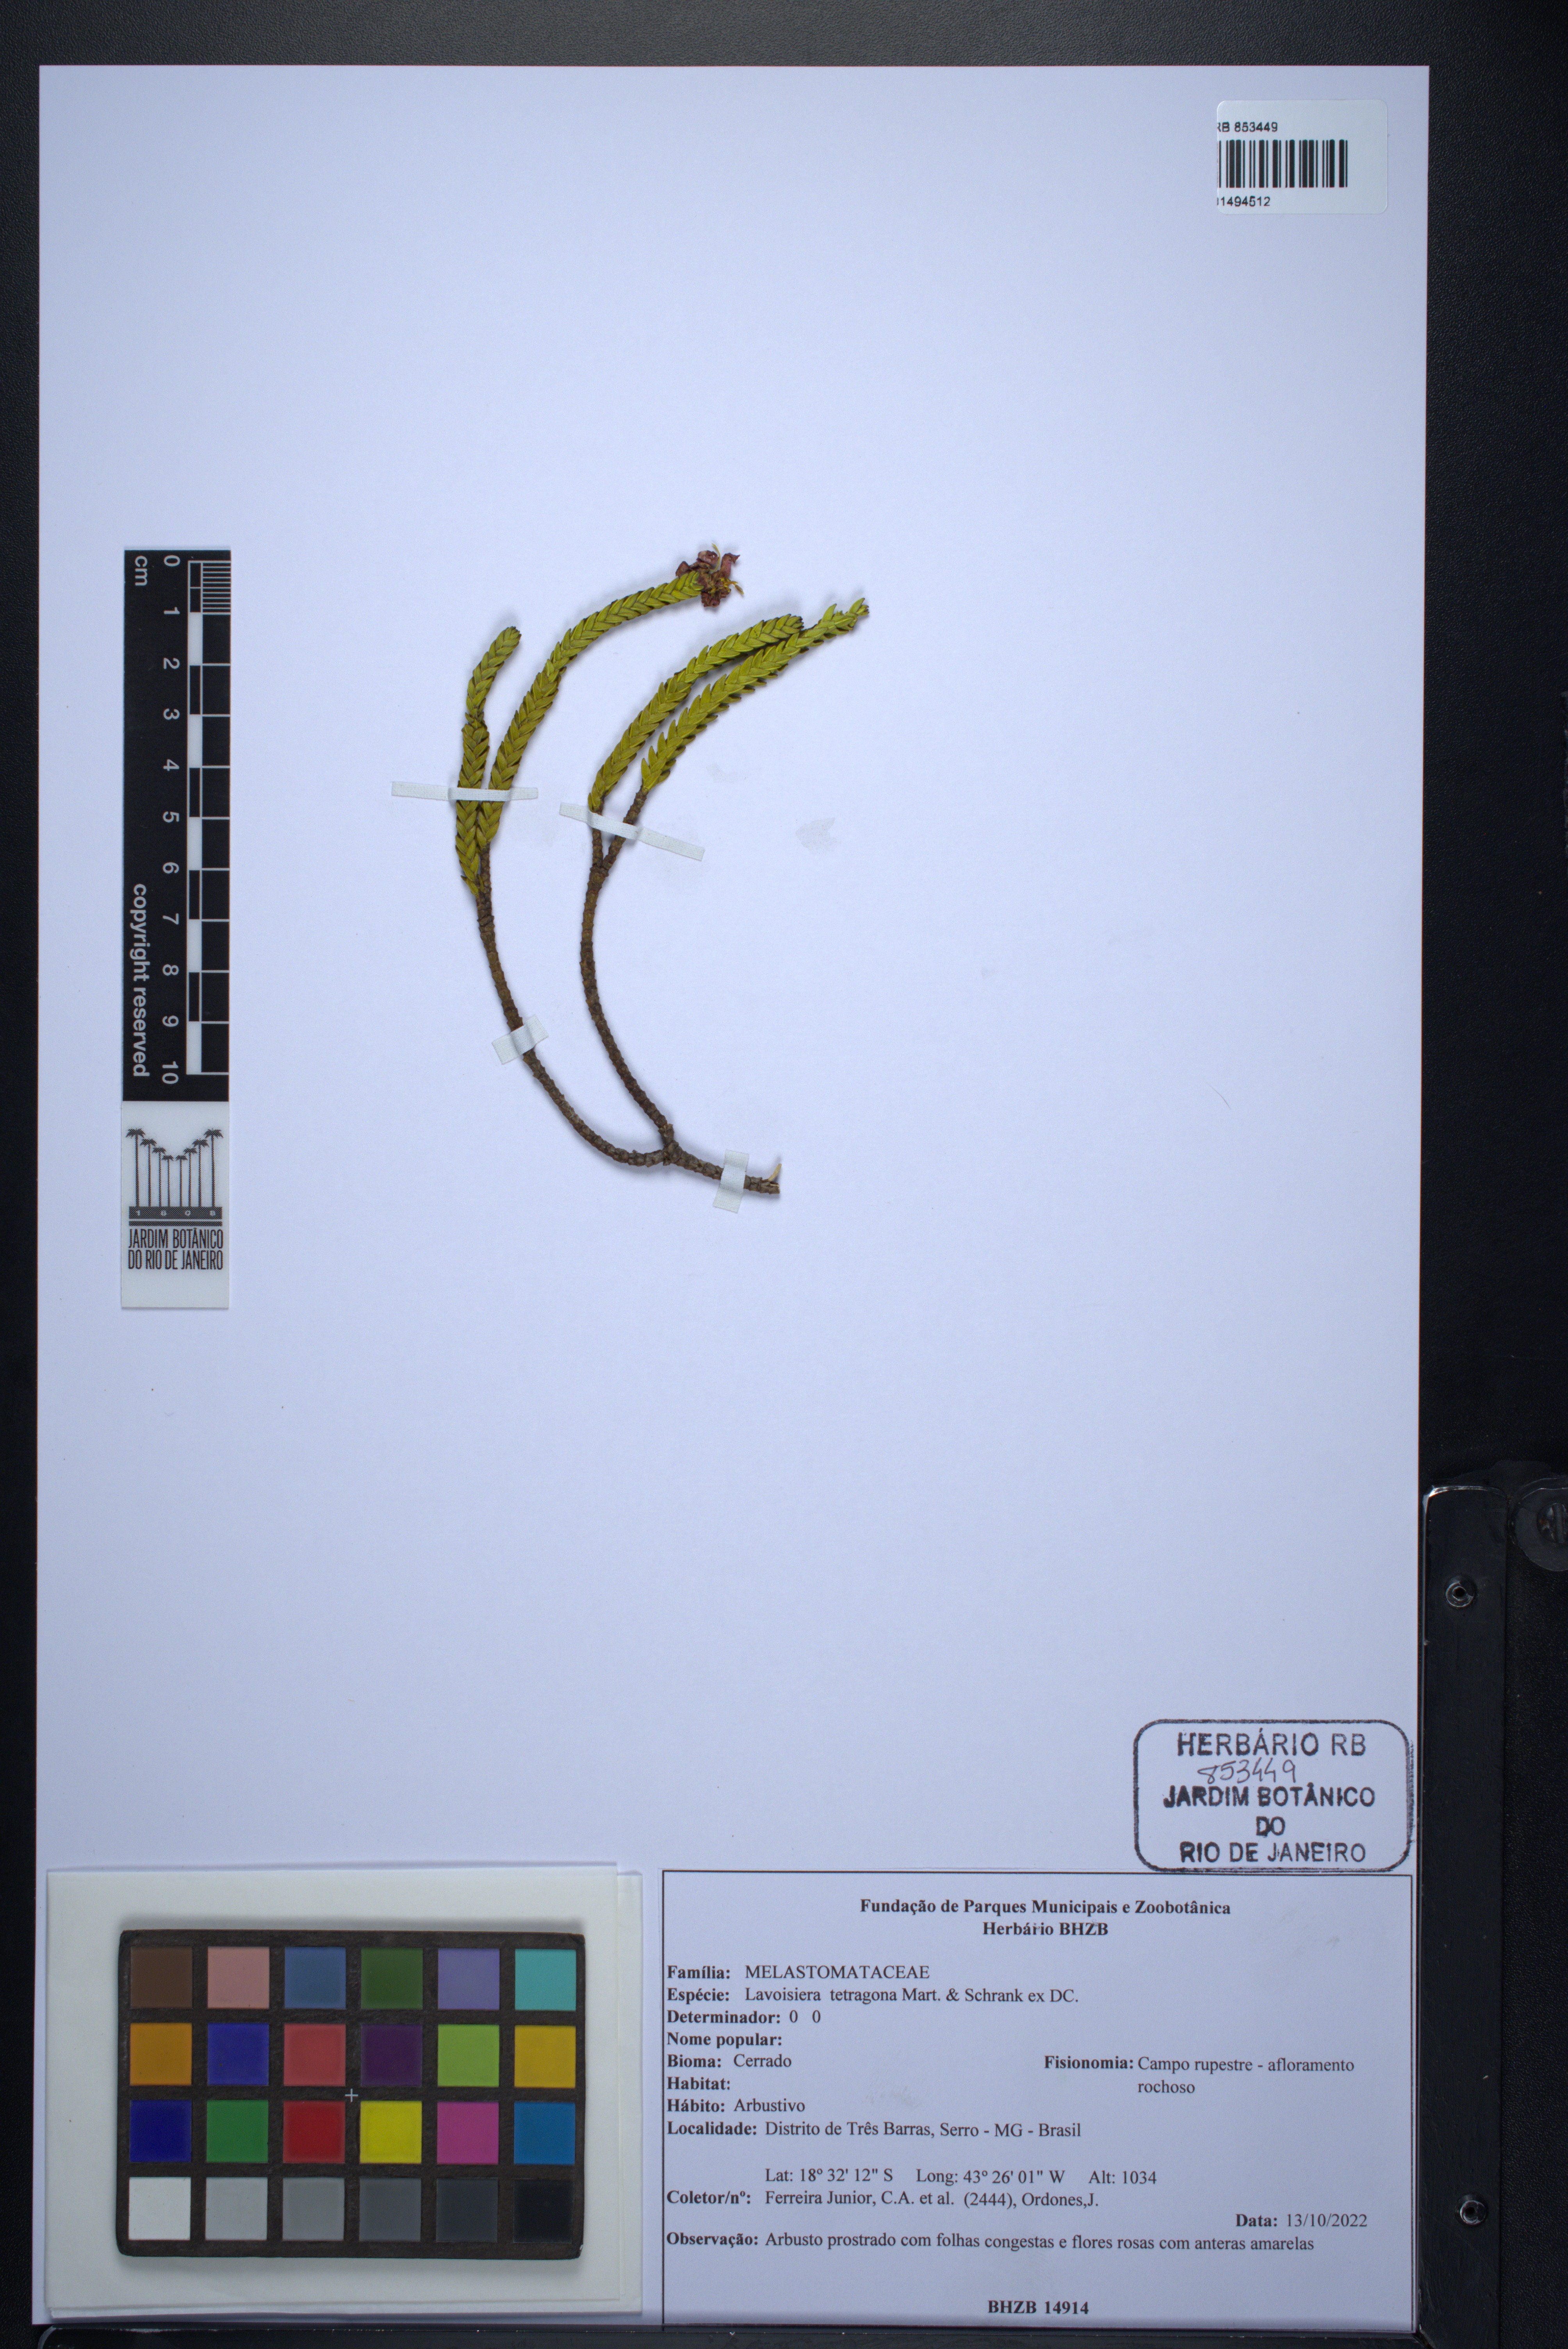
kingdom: Plantae
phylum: Tracheophyta
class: Magnoliopsida
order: Myrtales
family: Melastomataceae
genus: Microlicia
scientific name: Microlicia tetragona
